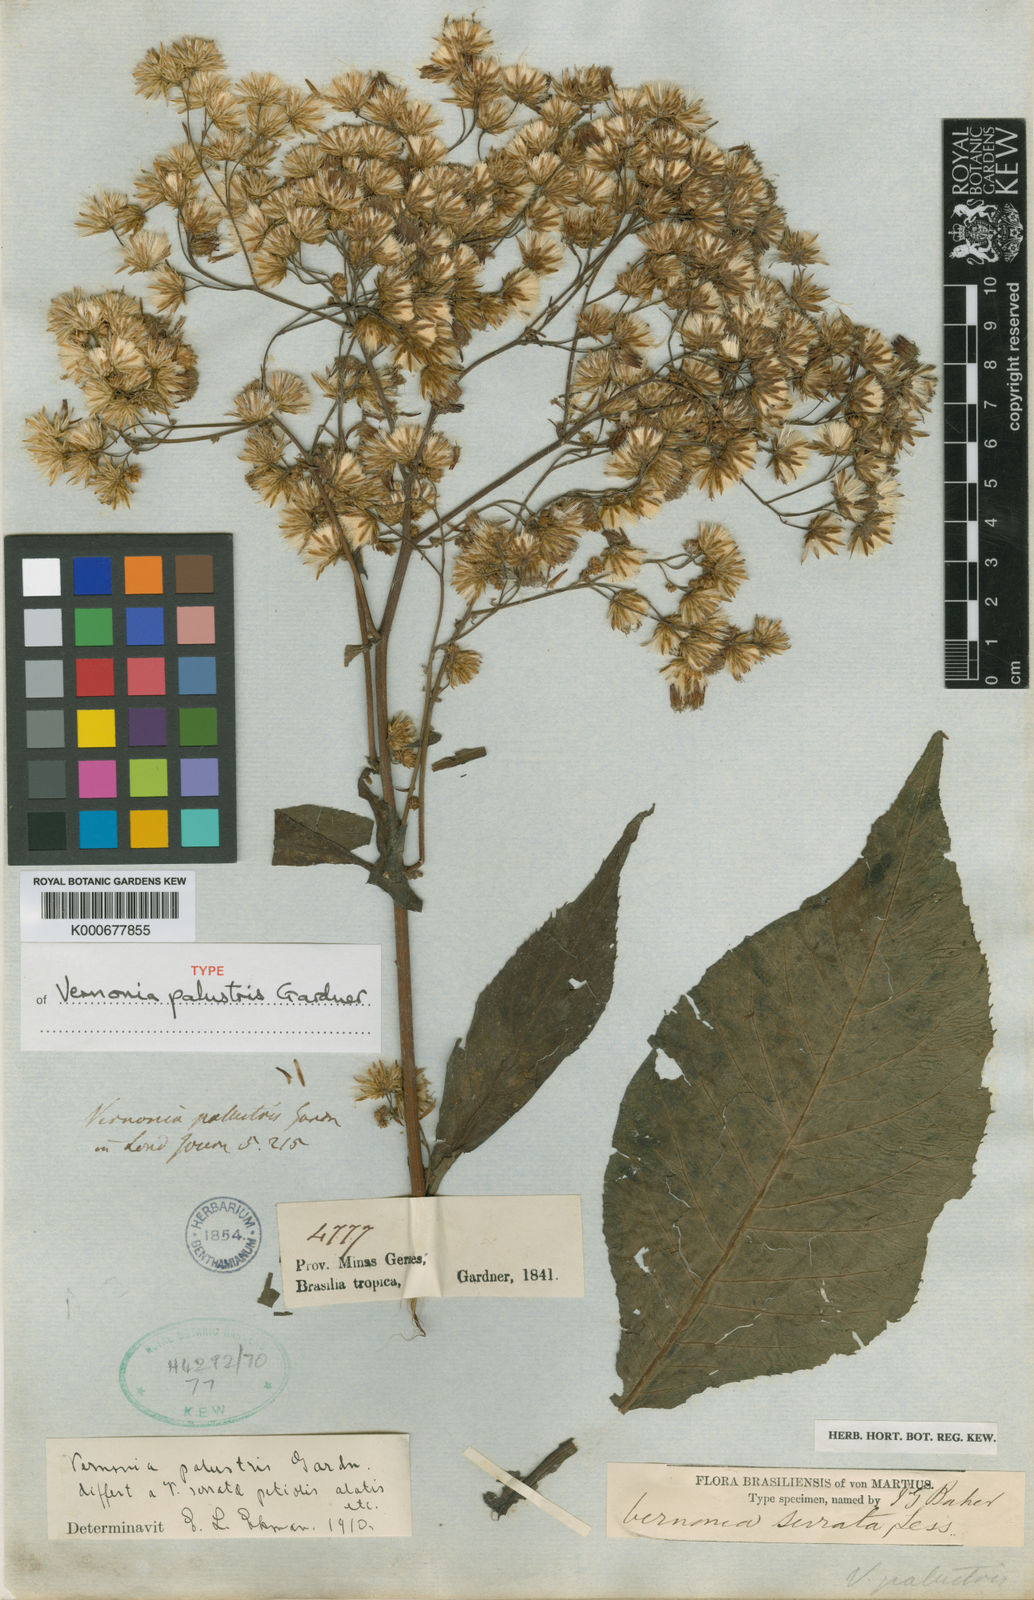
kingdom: Plantae
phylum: Tracheophyta
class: Magnoliopsida
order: Asterales
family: Asteraceae
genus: Dasyanthina
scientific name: Dasyanthina palustris
